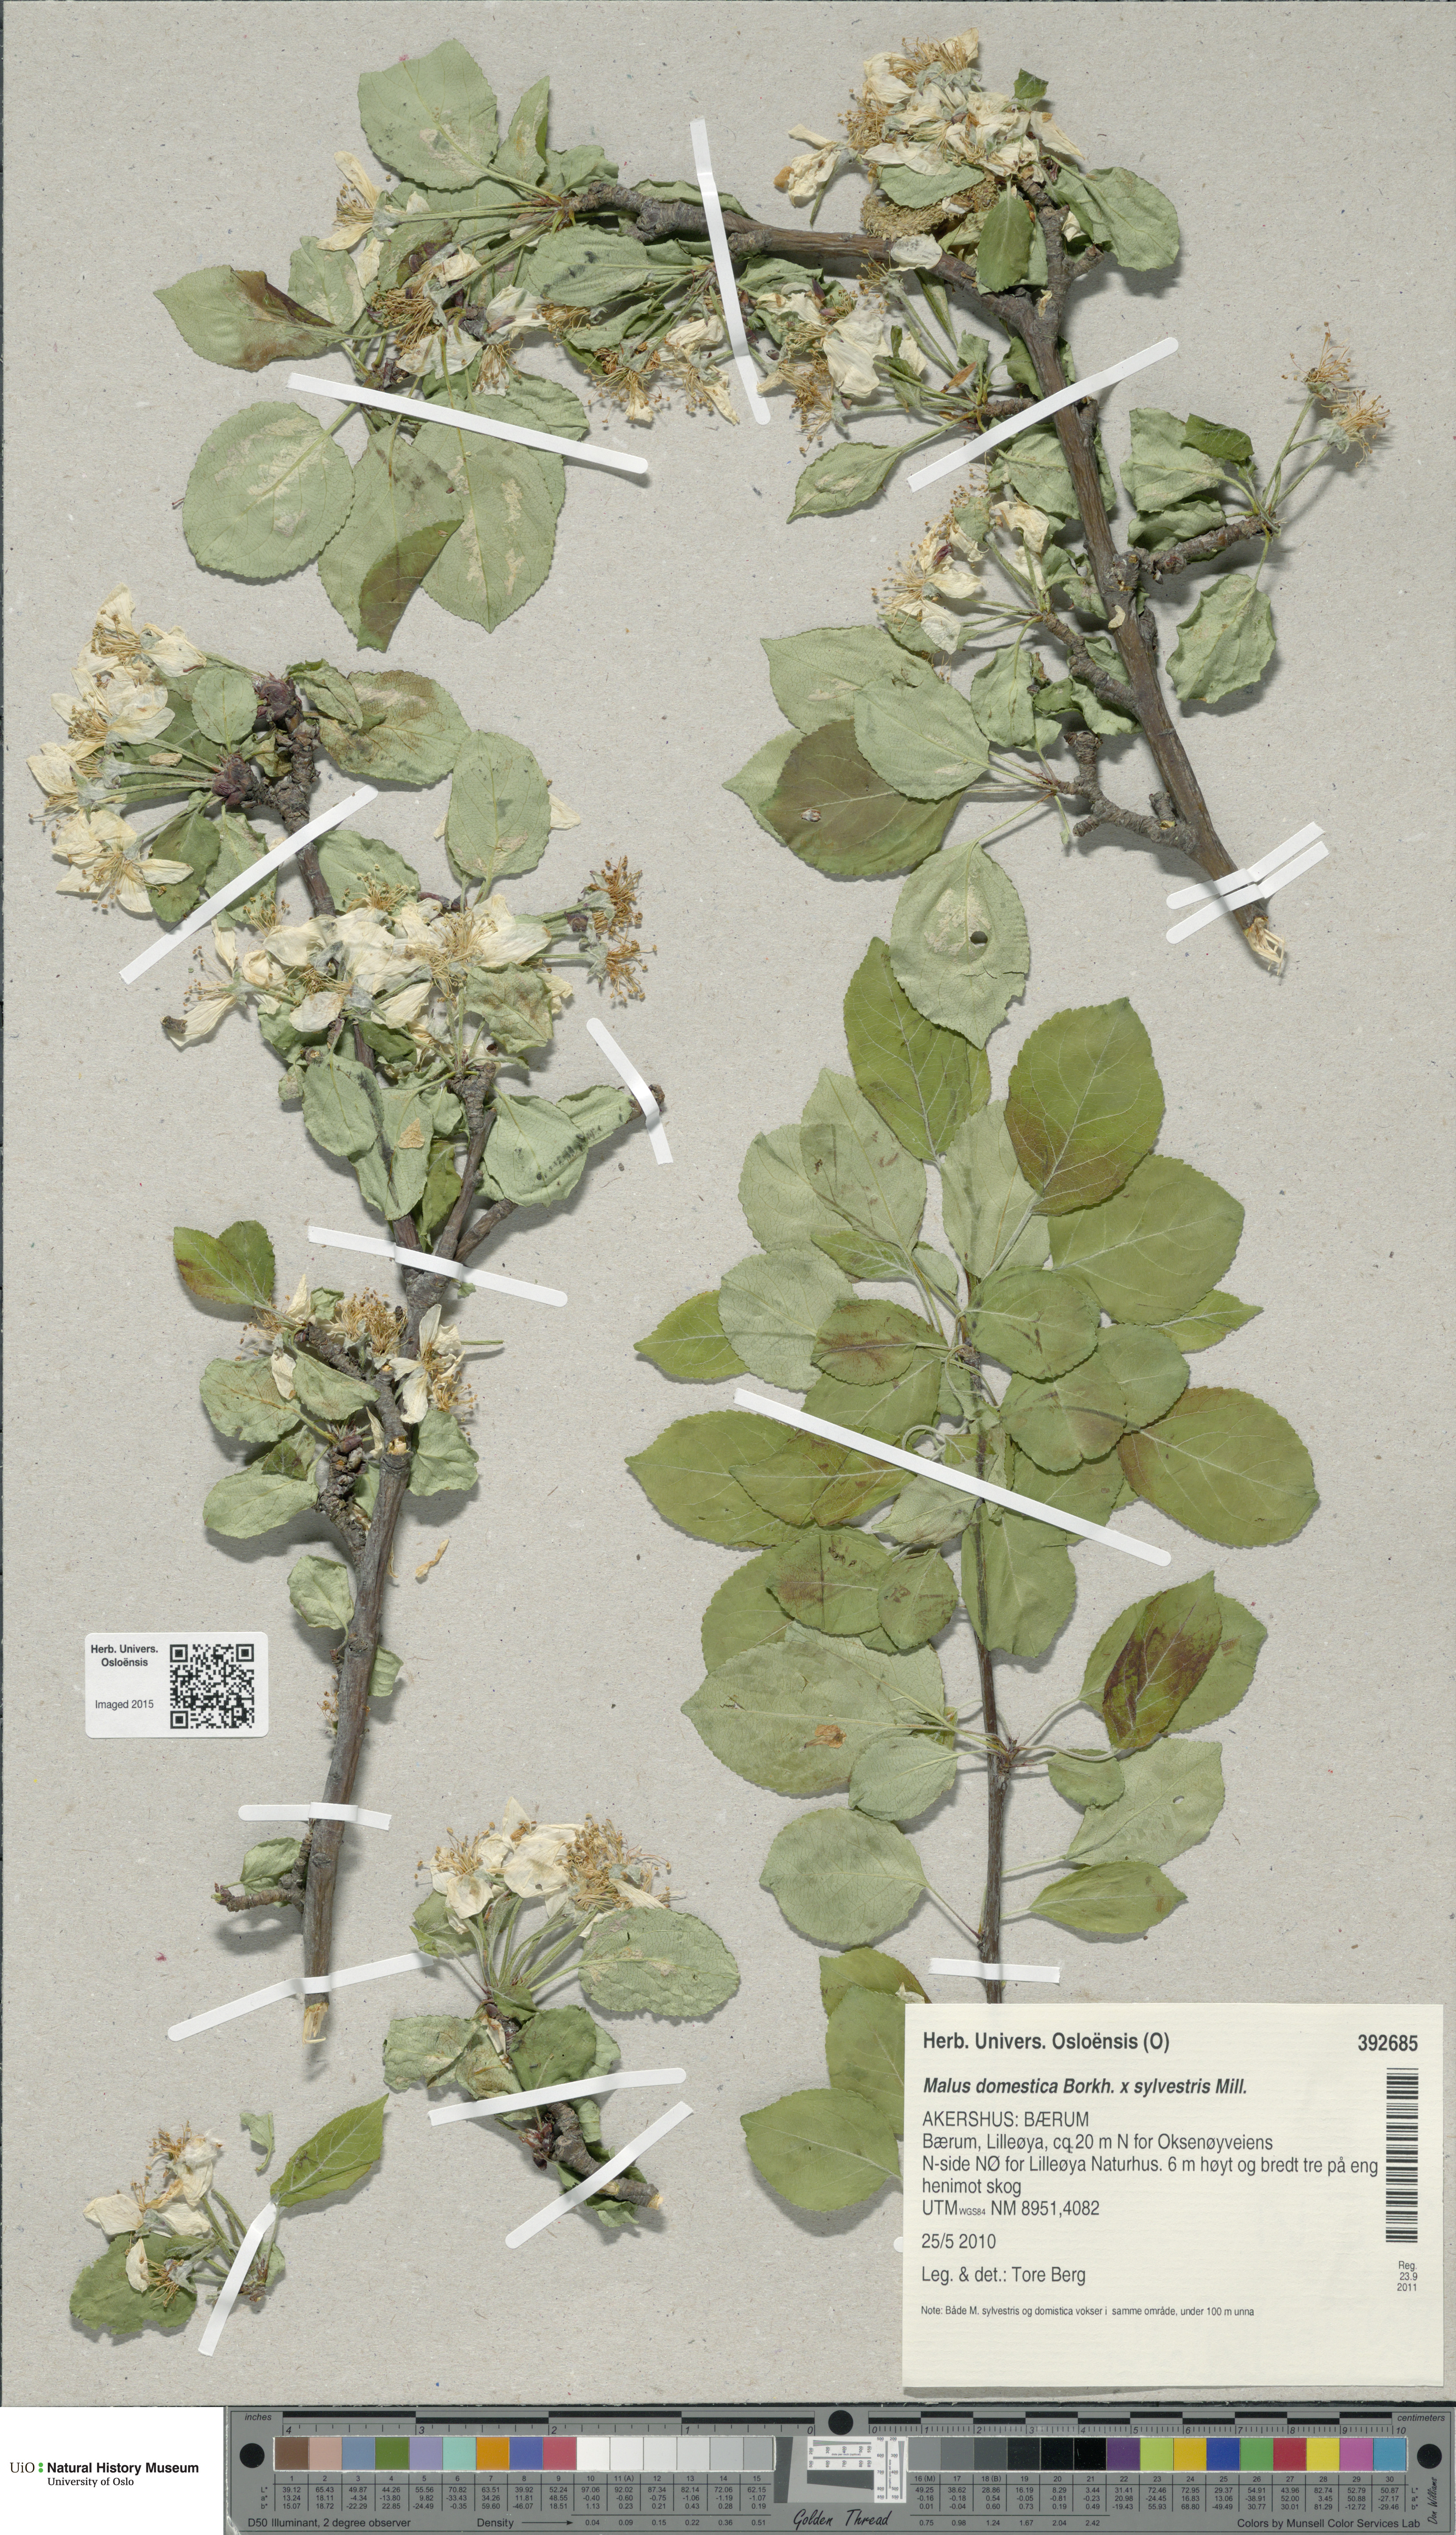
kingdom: Plantae
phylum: Tracheophyta
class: Magnoliopsida
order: Rosales
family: Rosaceae
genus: Malus
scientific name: Malus
